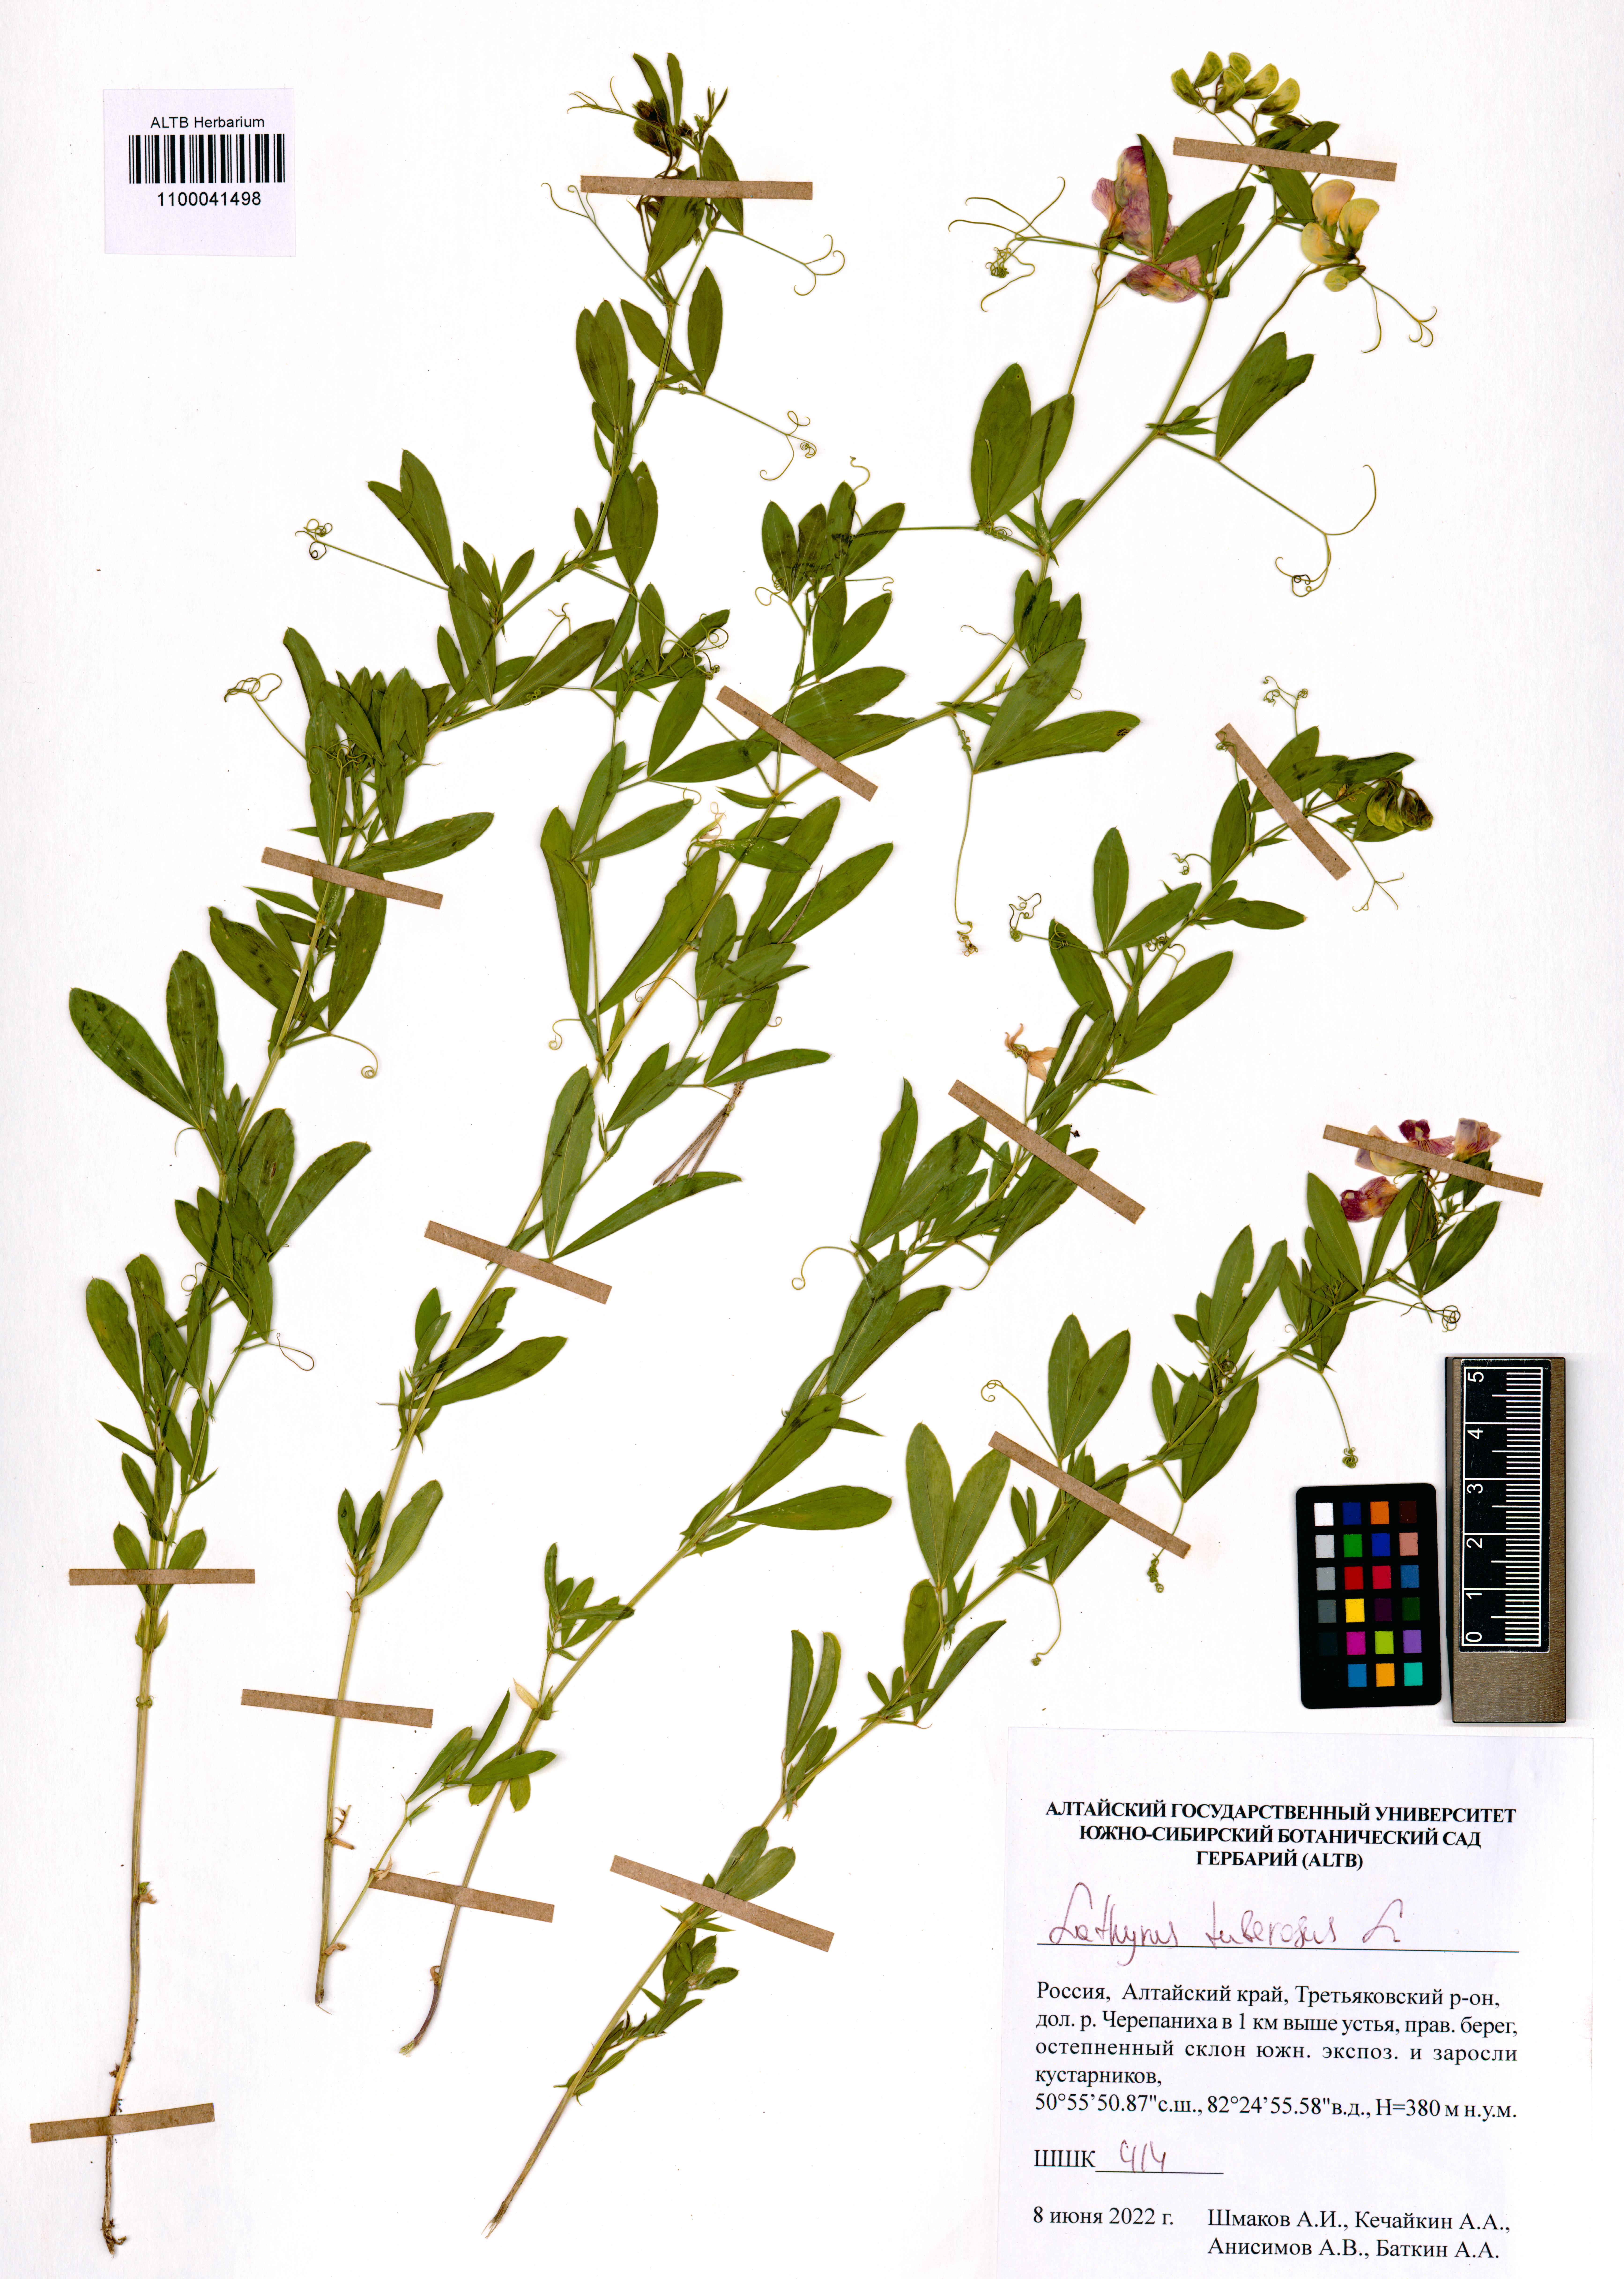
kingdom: Plantae
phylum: Tracheophyta
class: Magnoliopsida
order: Fabales
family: Fabaceae
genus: Lathyrus
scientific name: Lathyrus tuberosus
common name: Tuberous pea
